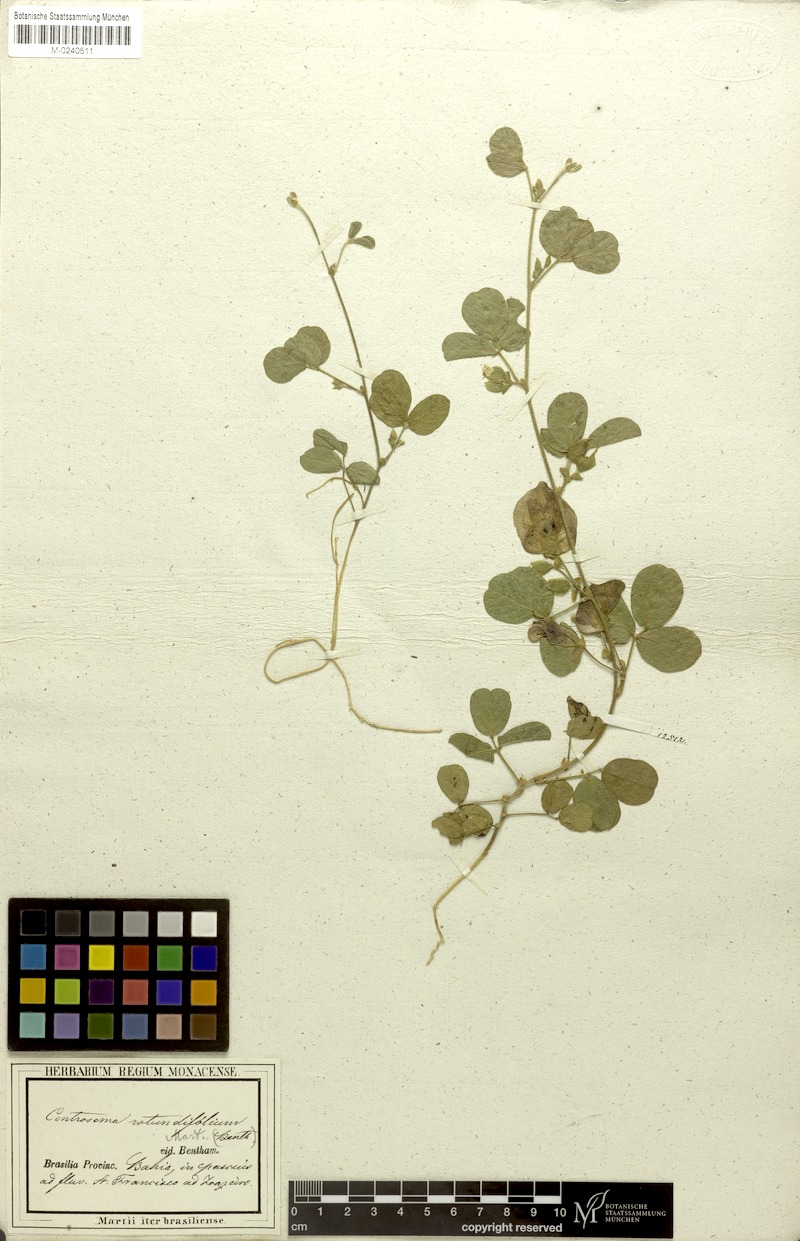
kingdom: Plantae
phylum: Tracheophyta
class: Magnoliopsida
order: Fabales
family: Fabaceae
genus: Centrosema
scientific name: Centrosema rotundifolium
